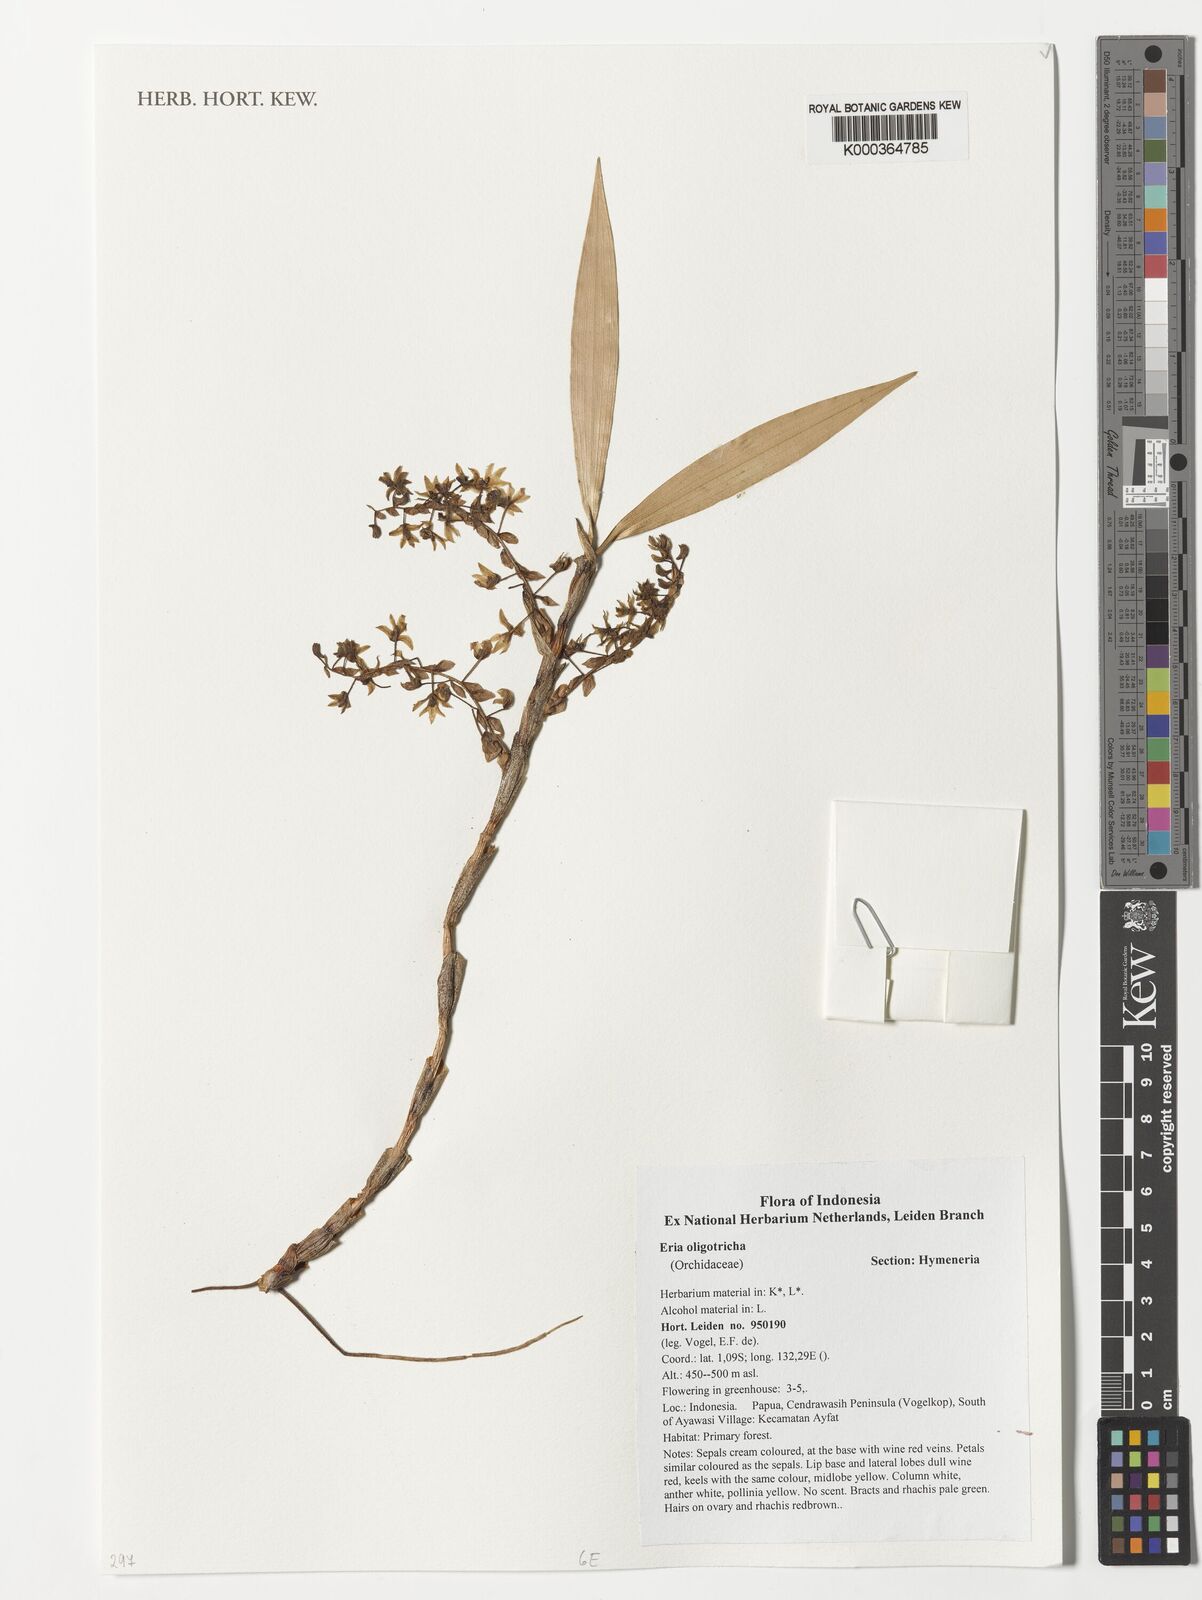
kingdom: Plantae
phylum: Tracheophyta
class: Liliopsida
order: Asparagales
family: Orchidaceae
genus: Pinalia
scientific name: Pinalia oligotricha
